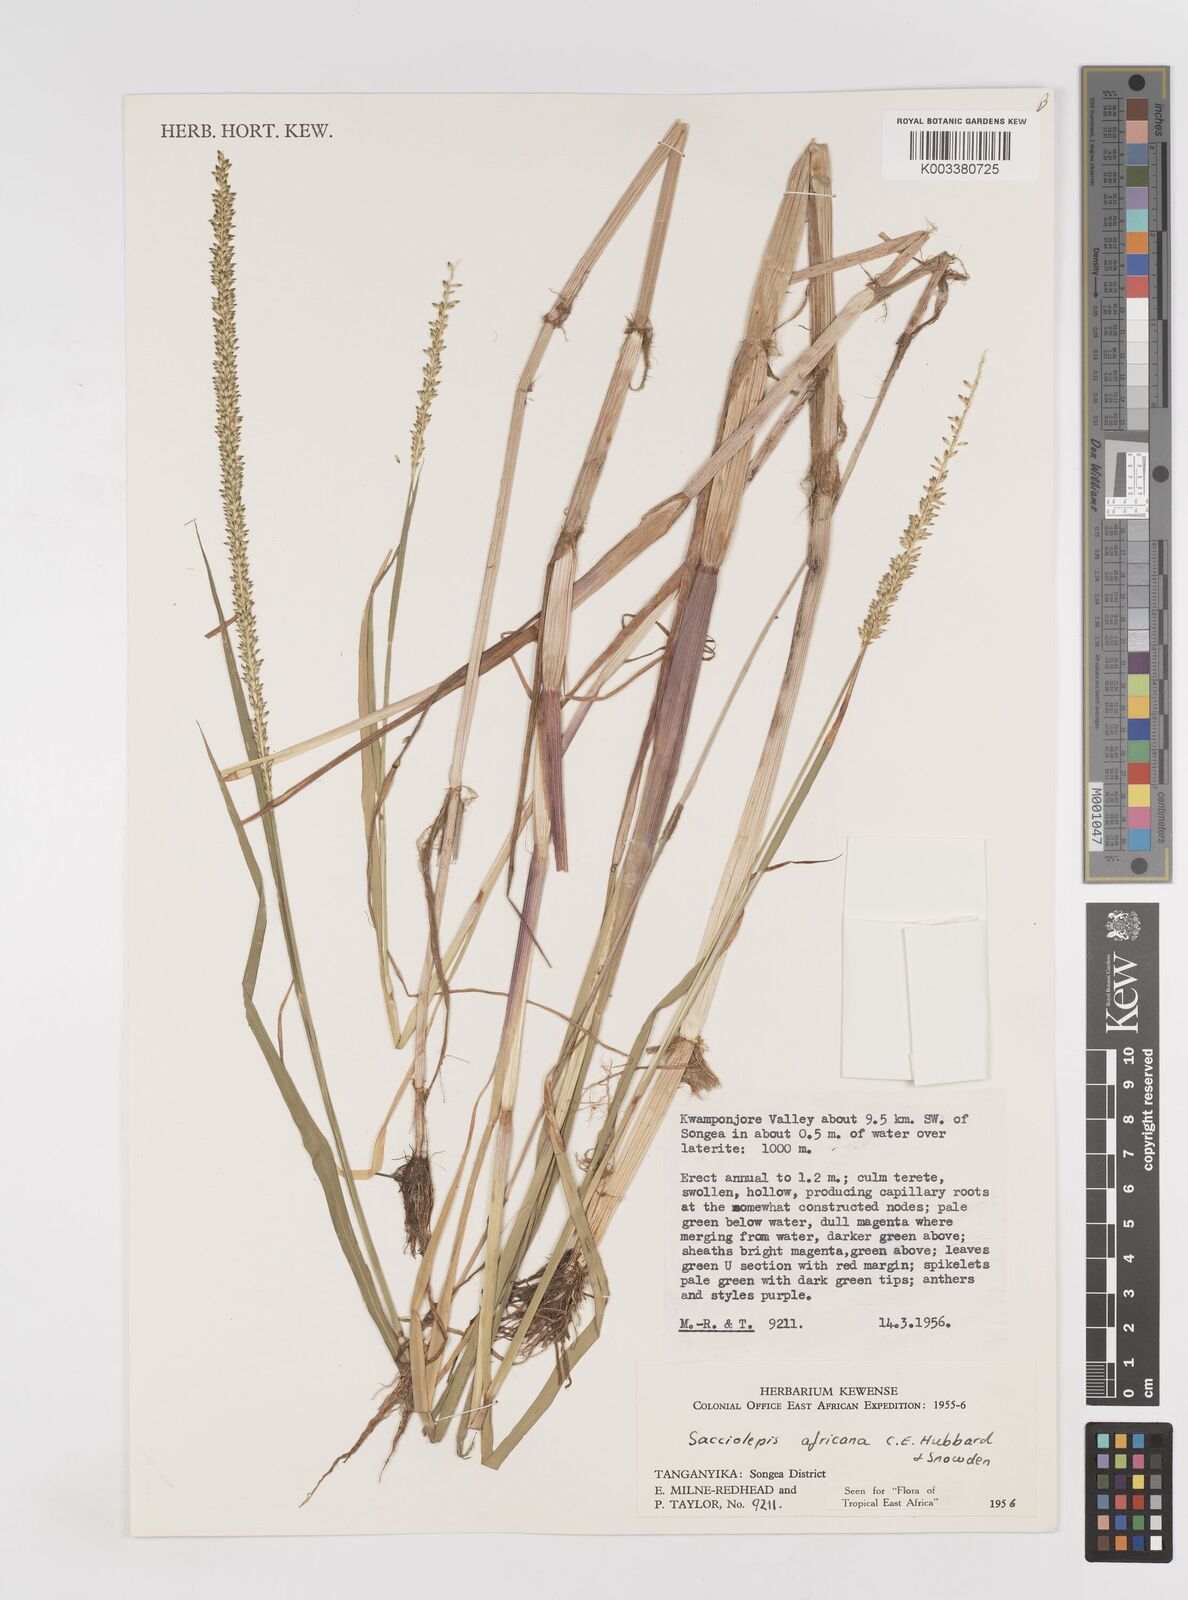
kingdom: Plantae
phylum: Tracheophyta
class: Liliopsida
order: Poales
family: Poaceae
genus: Sacciolepis
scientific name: Sacciolepis africana
